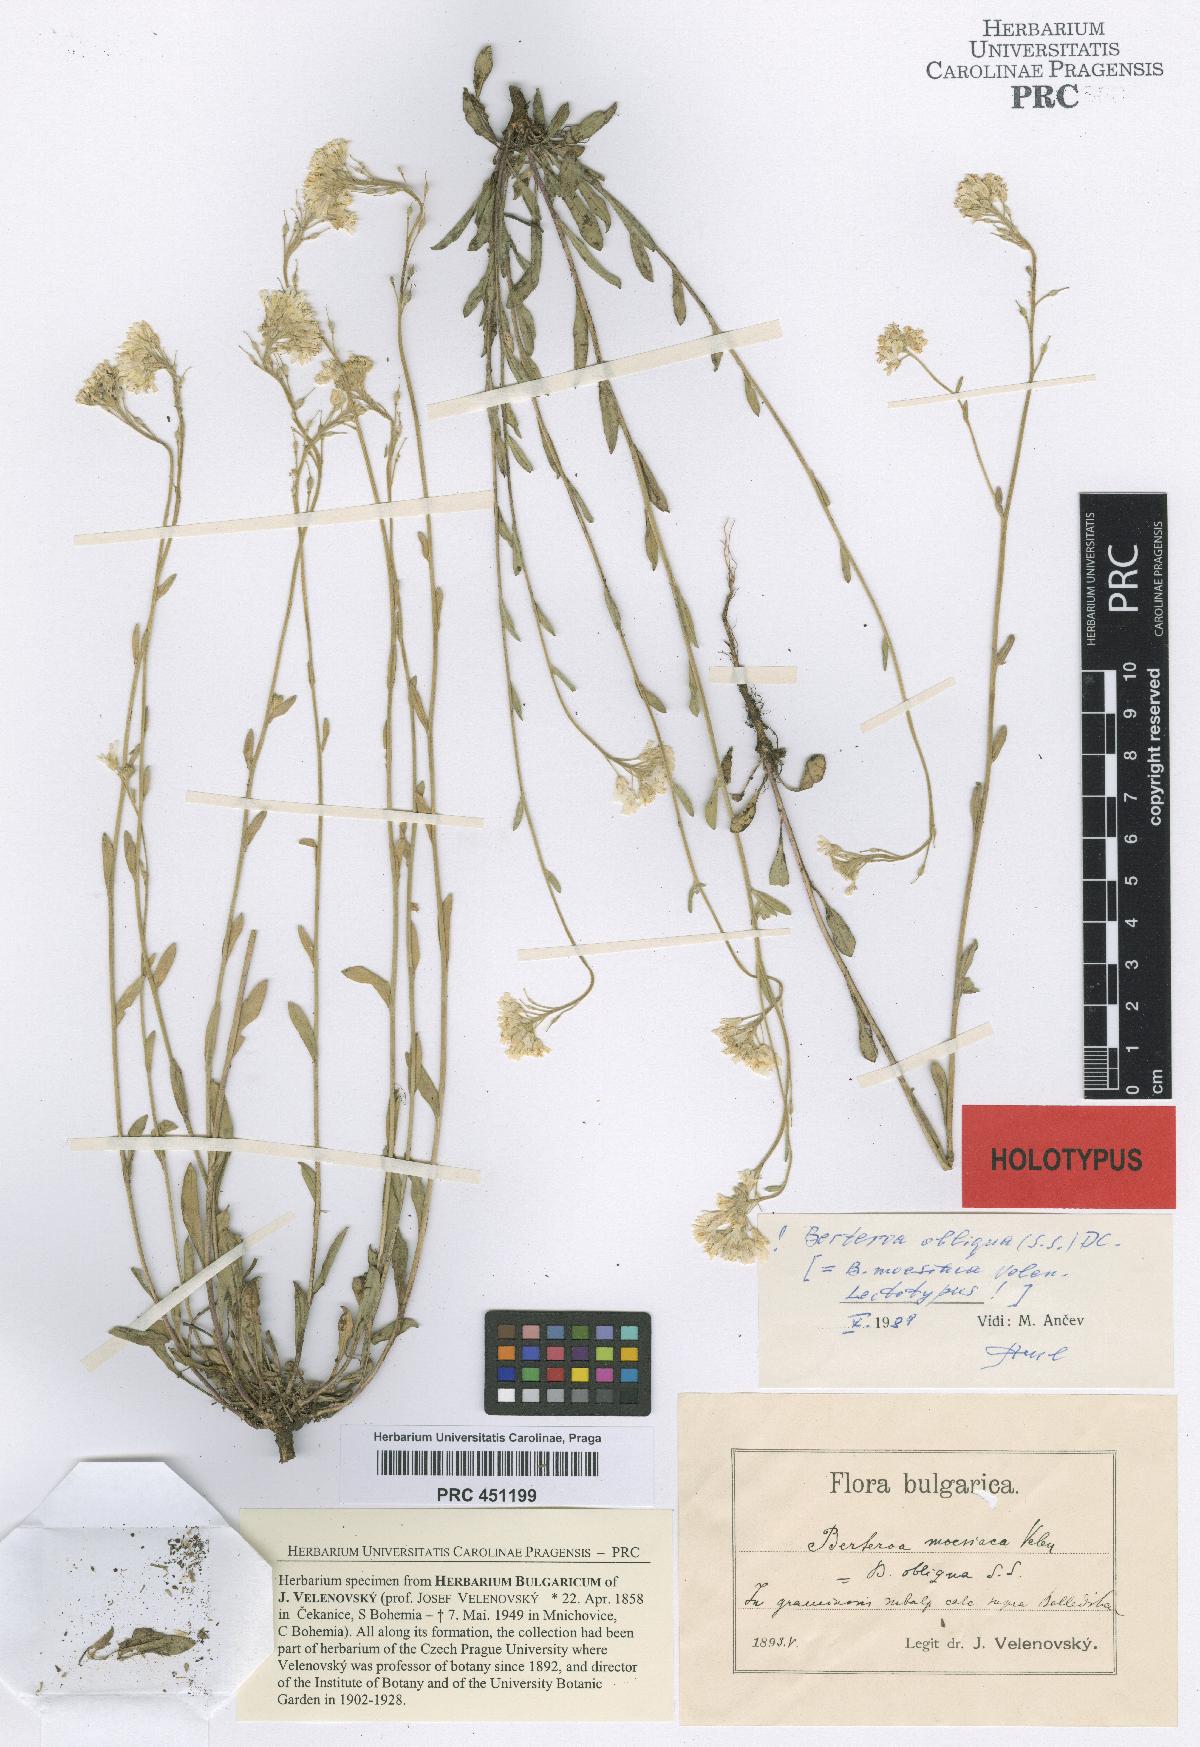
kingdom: Plantae
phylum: Tracheophyta
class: Magnoliopsida
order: Brassicales
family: Brassicaceae
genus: Berteroa
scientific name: Berteroa obliqua
